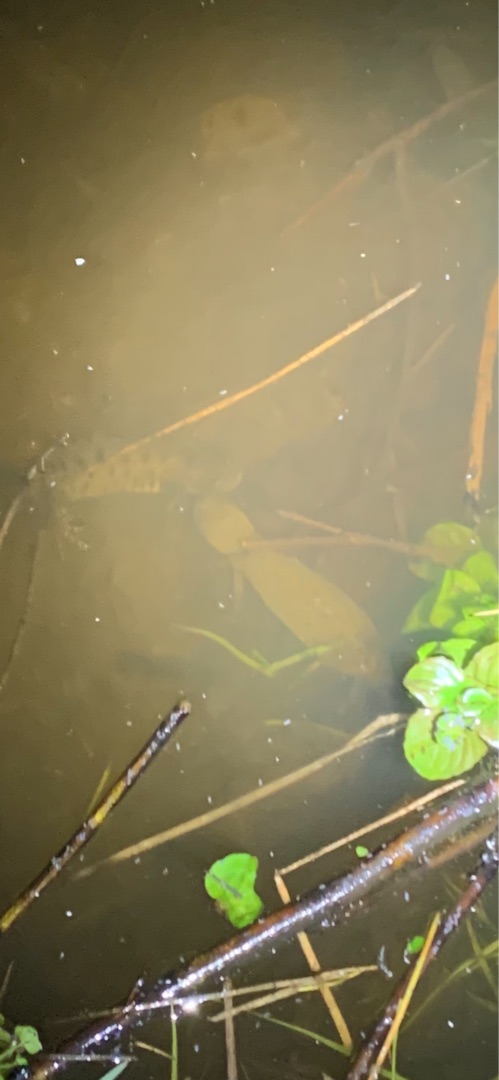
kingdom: Animalia
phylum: Chordata
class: Amphibia
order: Caudata
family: Salamandridae
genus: Triturus
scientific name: Triturus cristatus
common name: Stor vandsalamander
